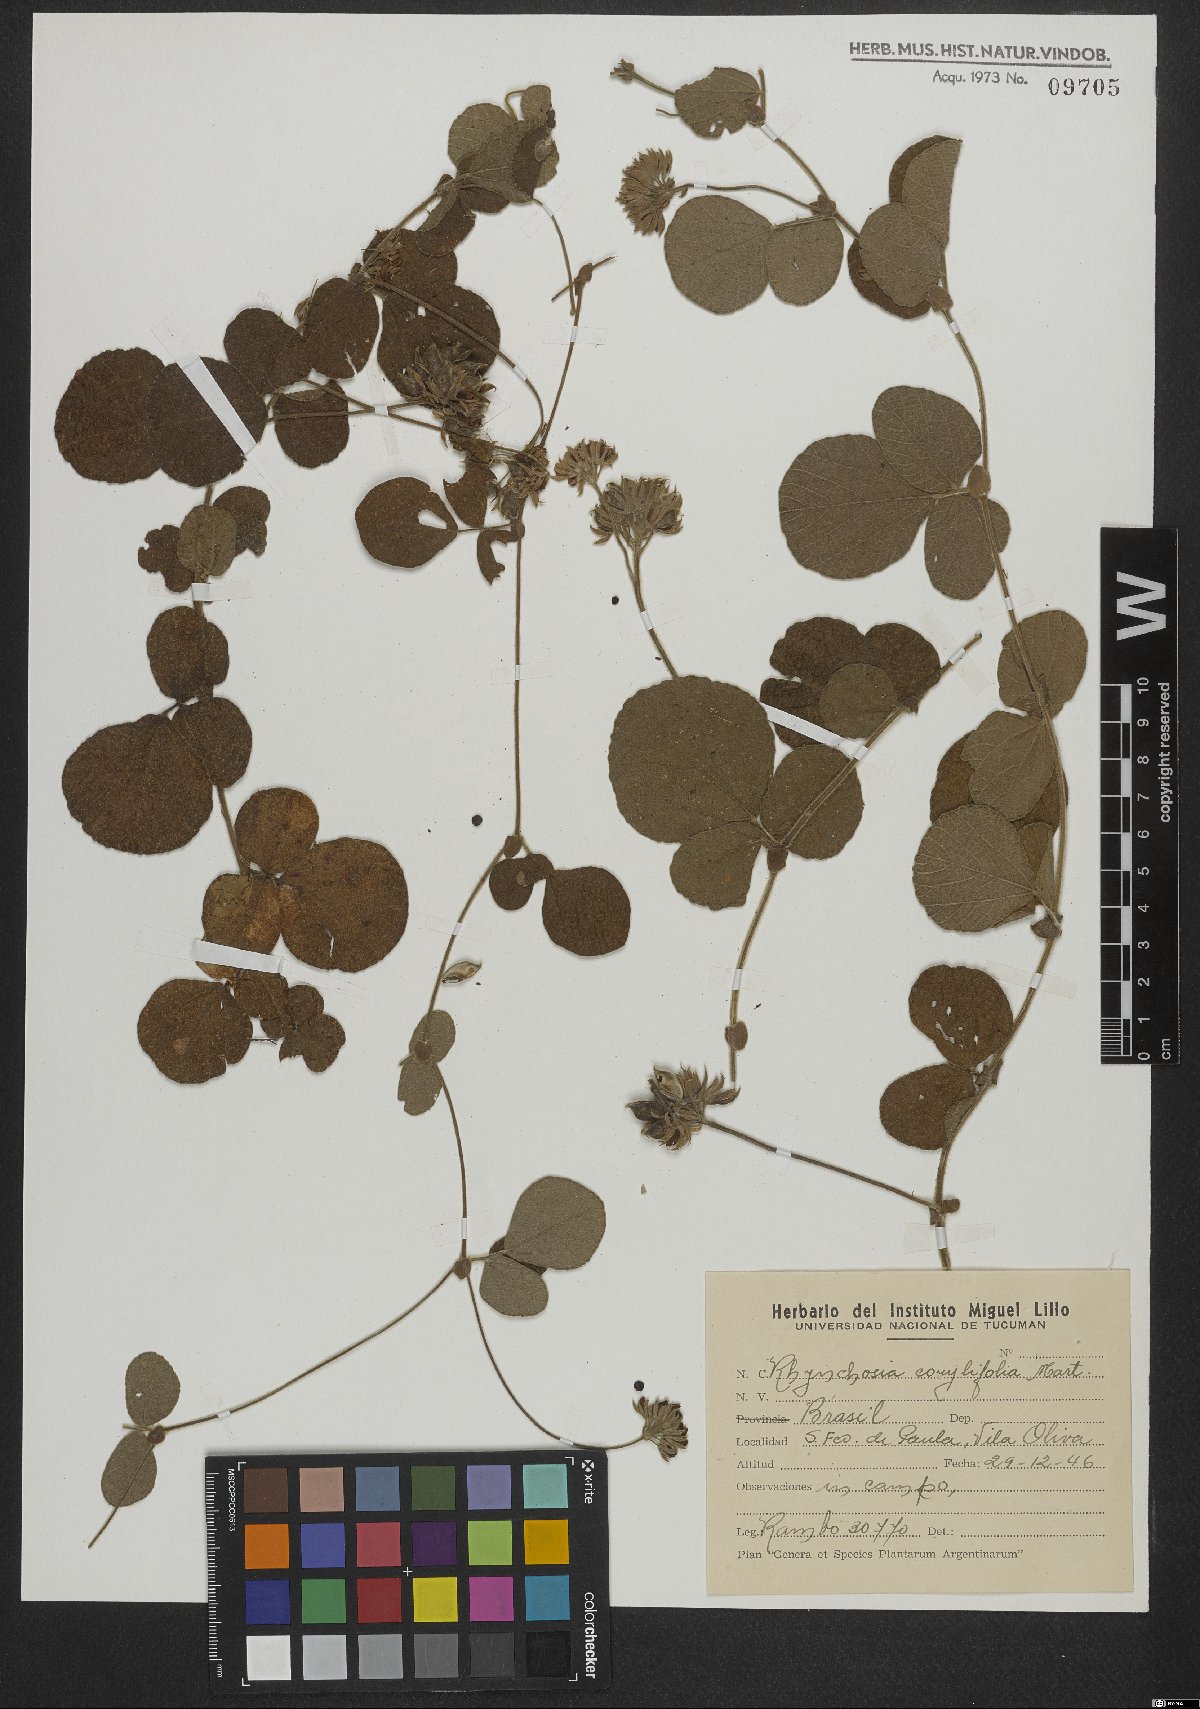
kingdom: Plantae
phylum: Tracheophyta
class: Magnoliopsida
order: Fabales
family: Fabaceae
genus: Rhynchosia
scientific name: Rhynchosia corylifolia
